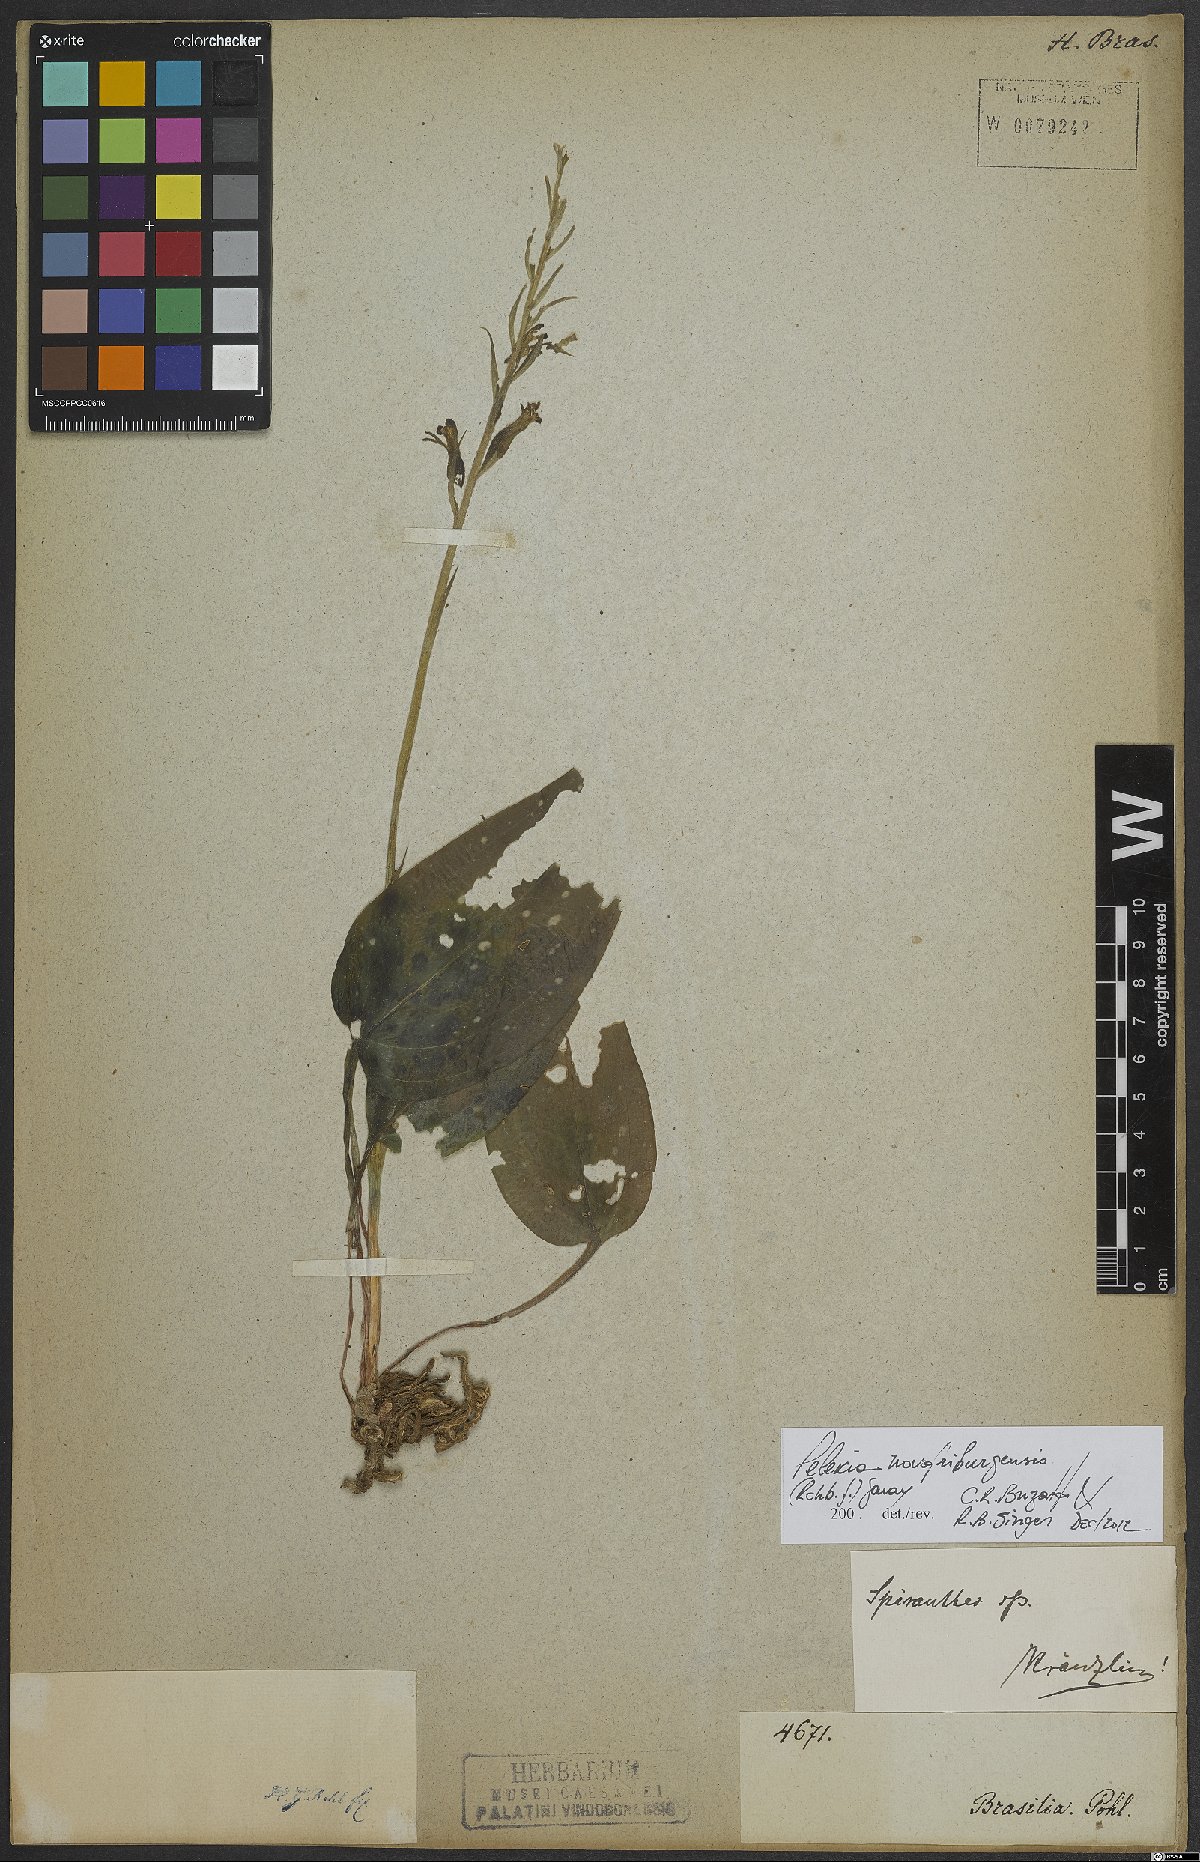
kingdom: Plantae
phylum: Tracheophyta
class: Liliopsida
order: Asparagales
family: Orchidaceae
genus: Pelexia
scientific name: Pelexia novofriburgensis
